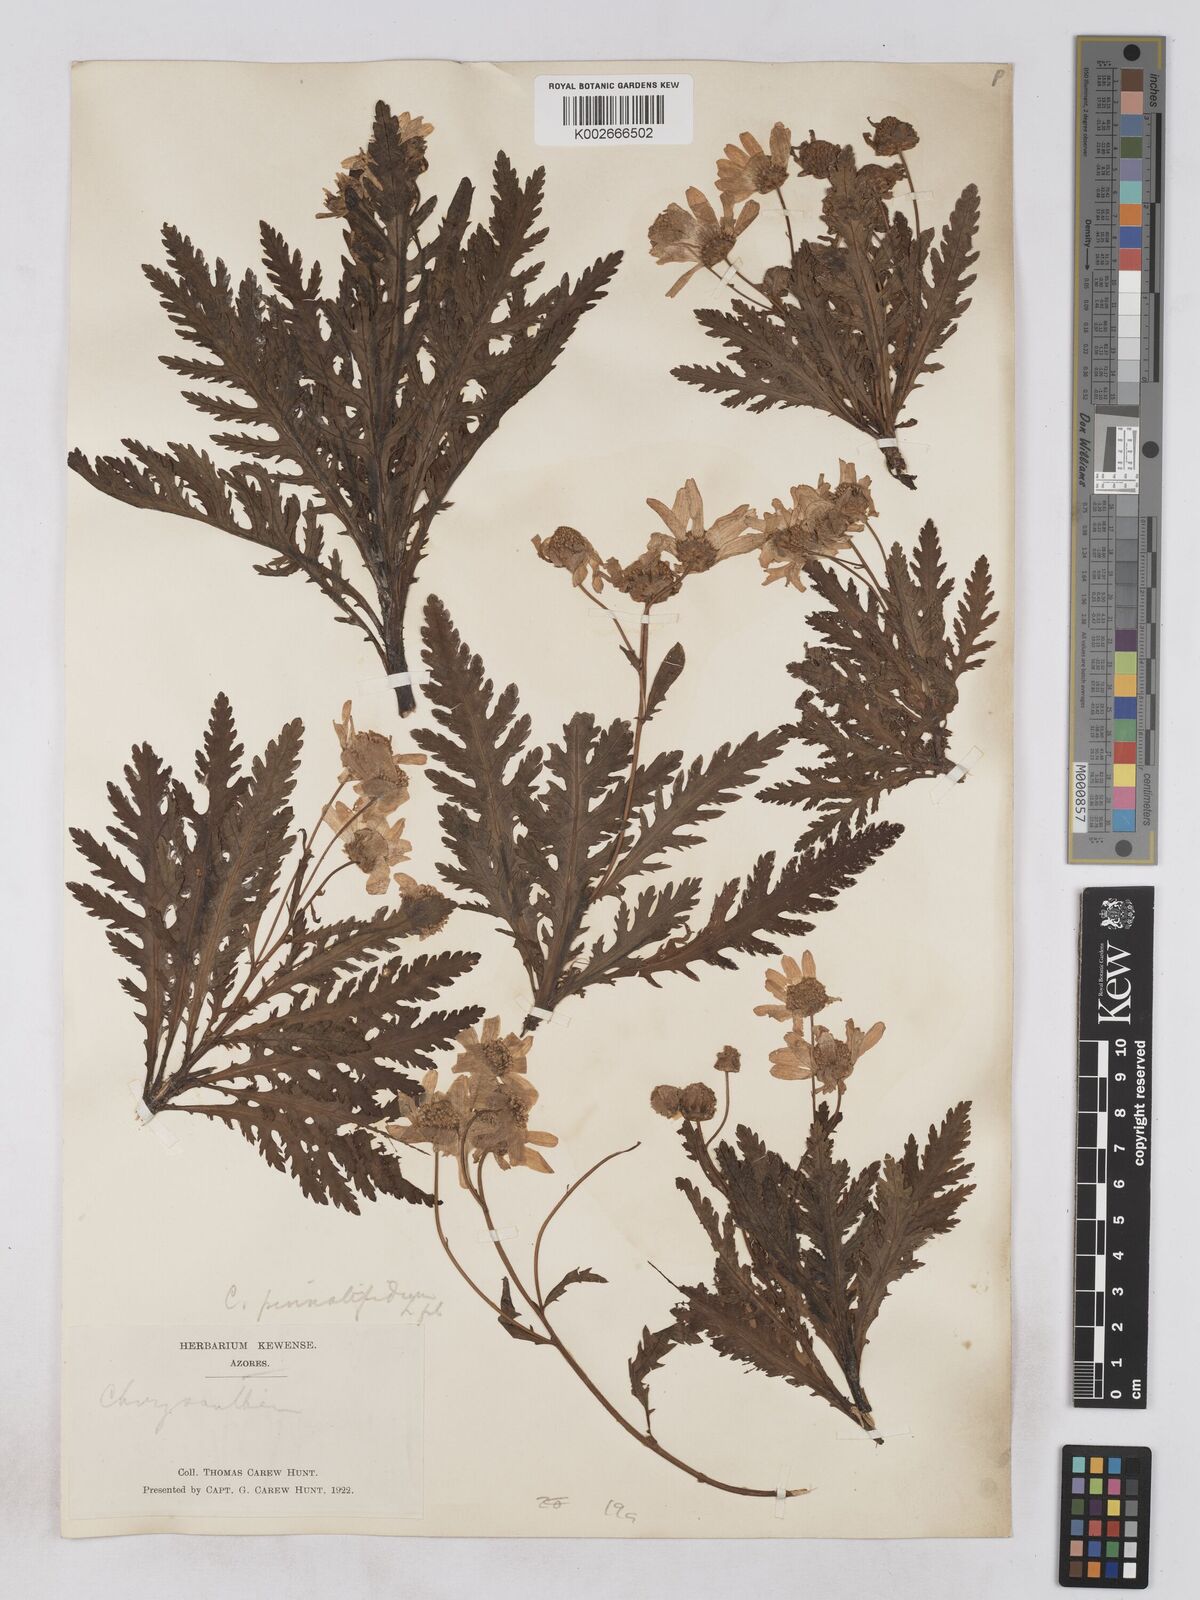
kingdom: Plantae
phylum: Tracheophyta
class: Magnoliopsida
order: Asterales
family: Asteraceae
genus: Argyranthemum
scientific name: Argyranthemum pinnatifidum
